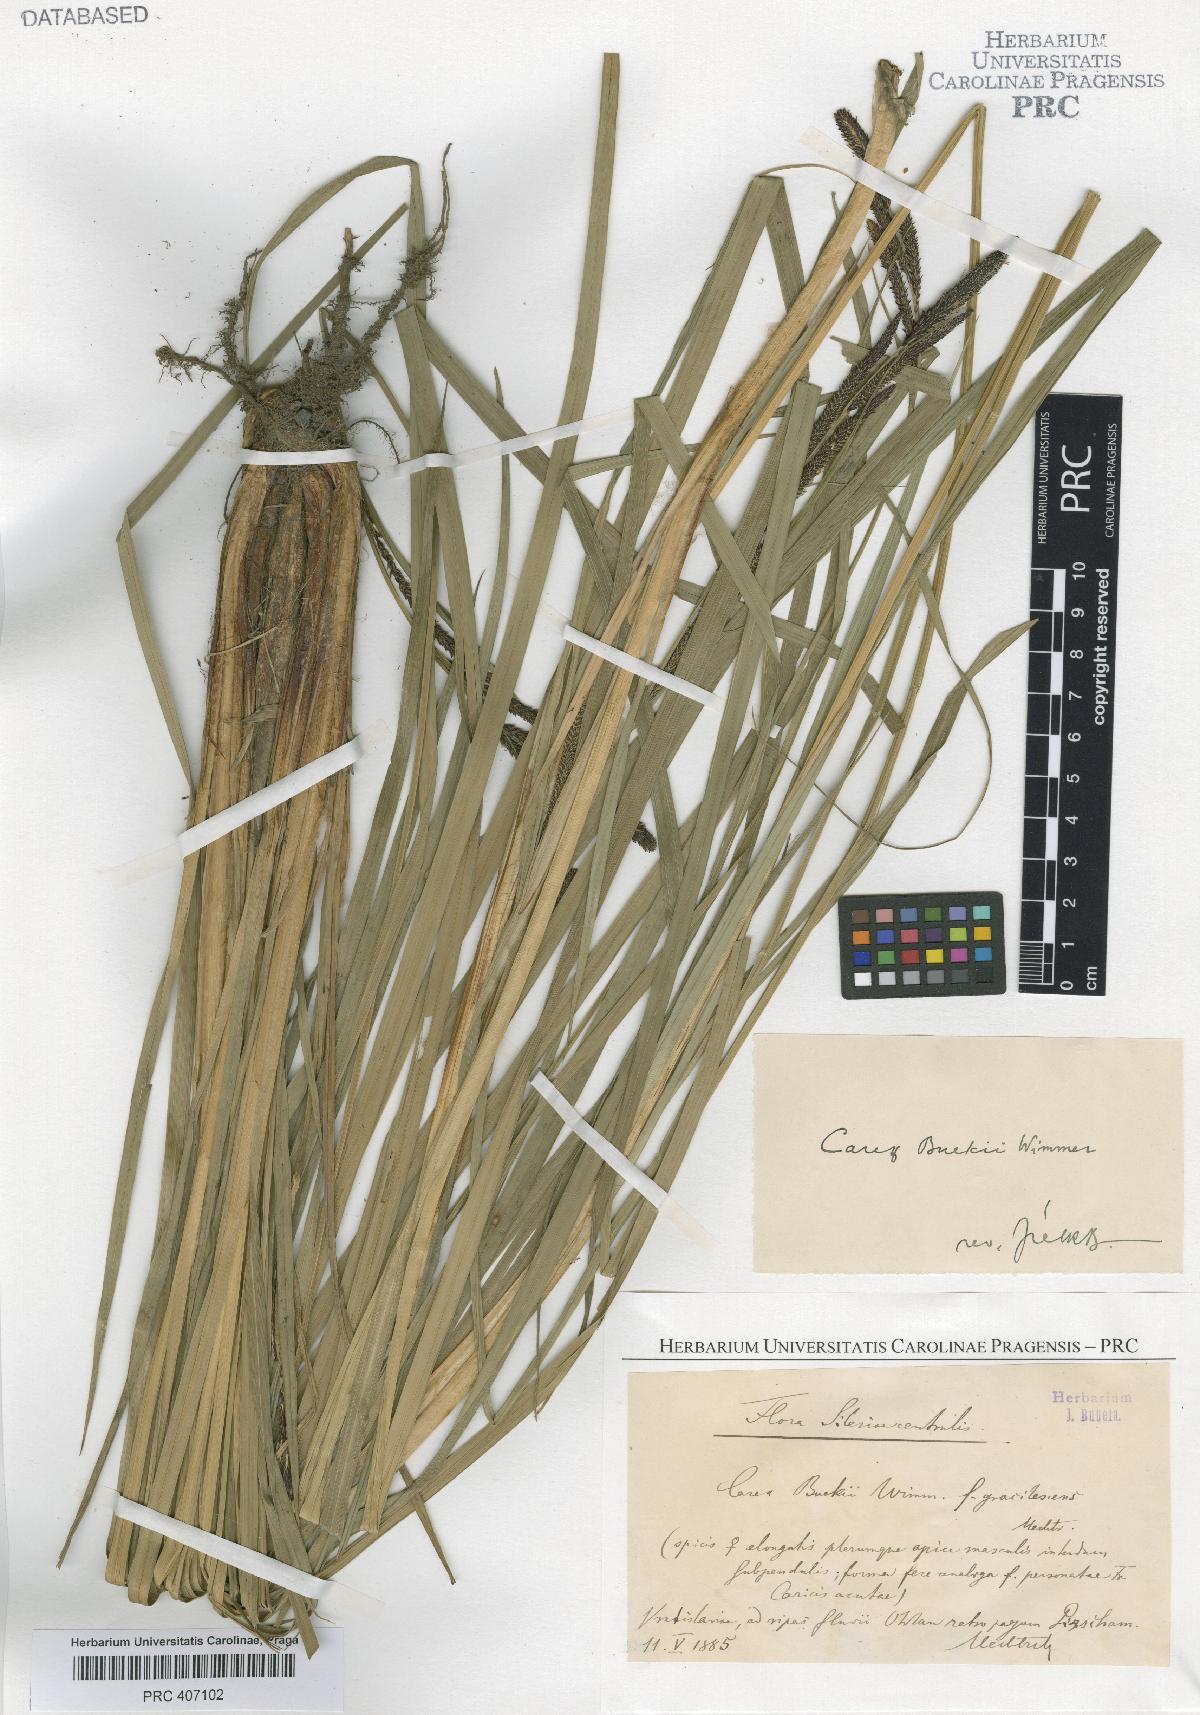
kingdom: Plantae
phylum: Tracheophyta
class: Liliopsida
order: Poales
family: Cyperaceae
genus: Carex
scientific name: Carex buekii
